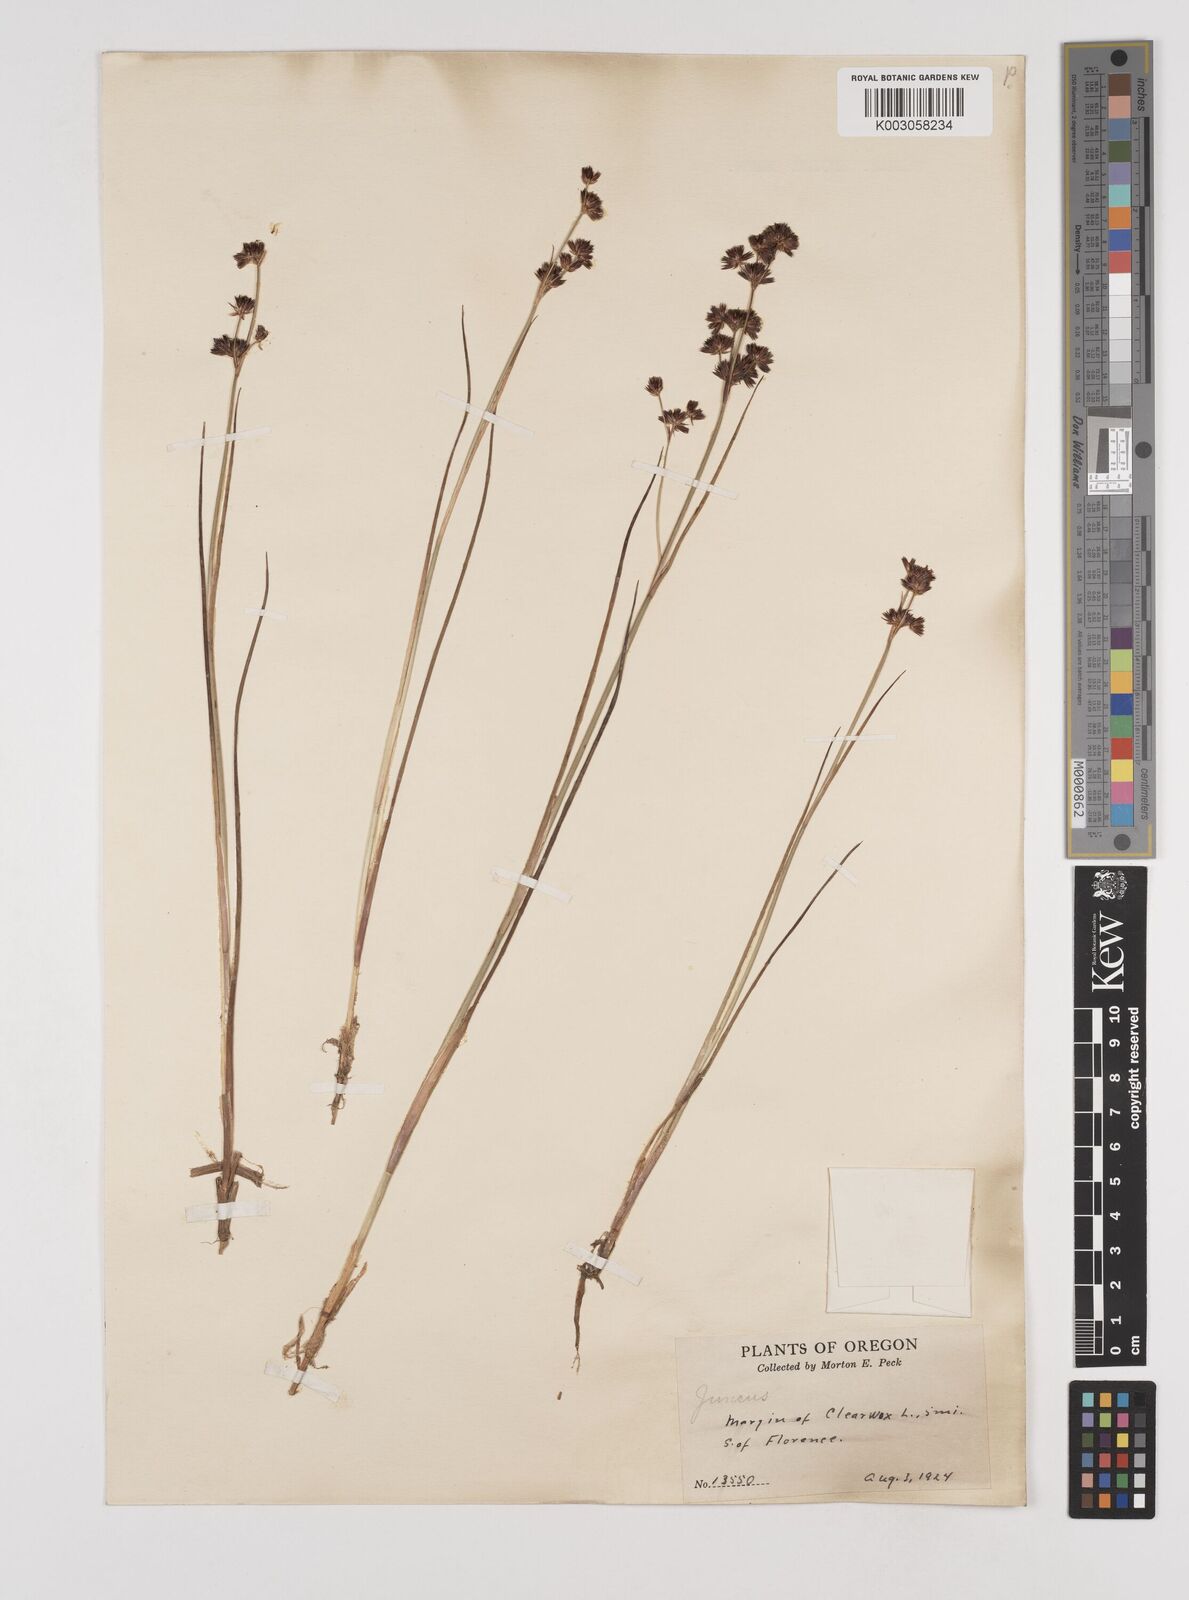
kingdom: Plantae
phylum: Tracheophyta
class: Liliopsida
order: Poales
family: Juncaceae
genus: Juncus
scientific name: Juncus
